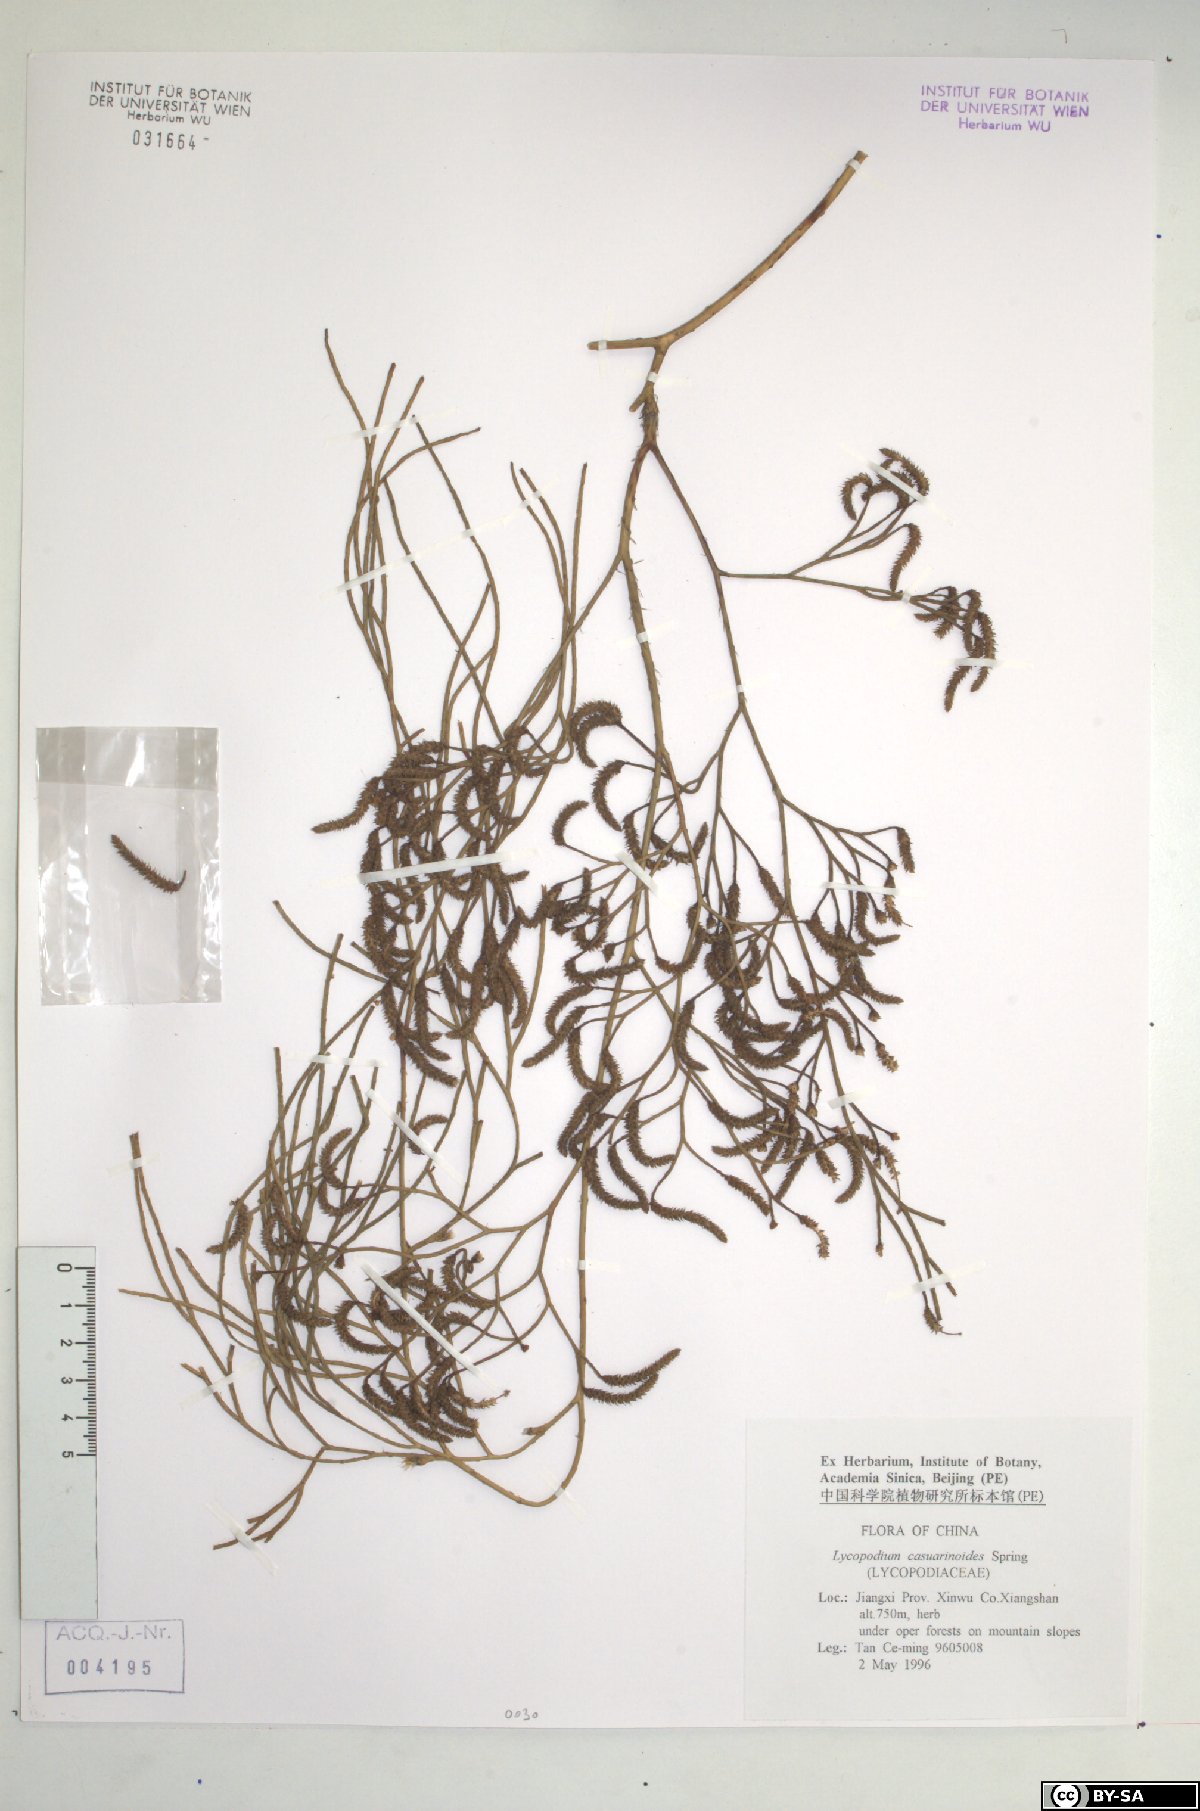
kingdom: Plantae
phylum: Tracheophyta
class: Lycopodiopsida
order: Lycopodiales
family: Lycopodiaceae
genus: Lycopodiastrum
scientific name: Lycopodiastrum casuarinoides
